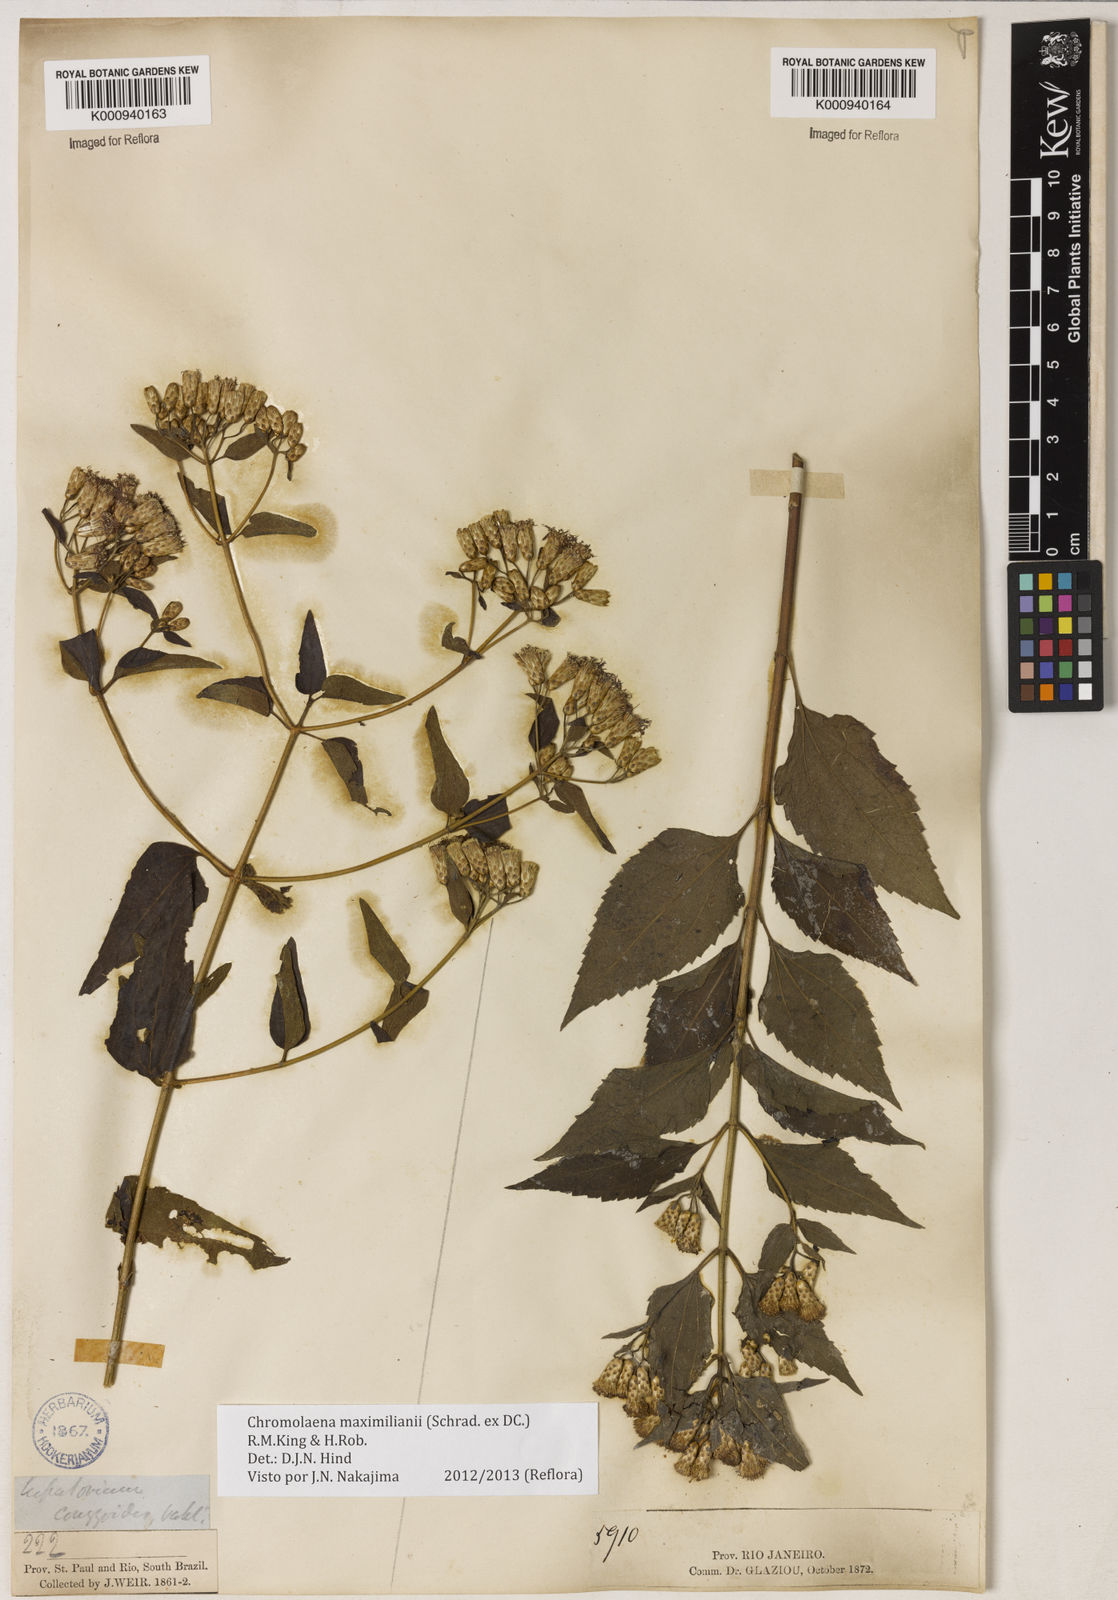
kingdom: Plantae
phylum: Tracheophyta
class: Magnoliopsida
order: Asterales
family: Asteraceae
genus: Chromolaena
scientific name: Chromolaena maximiliani
